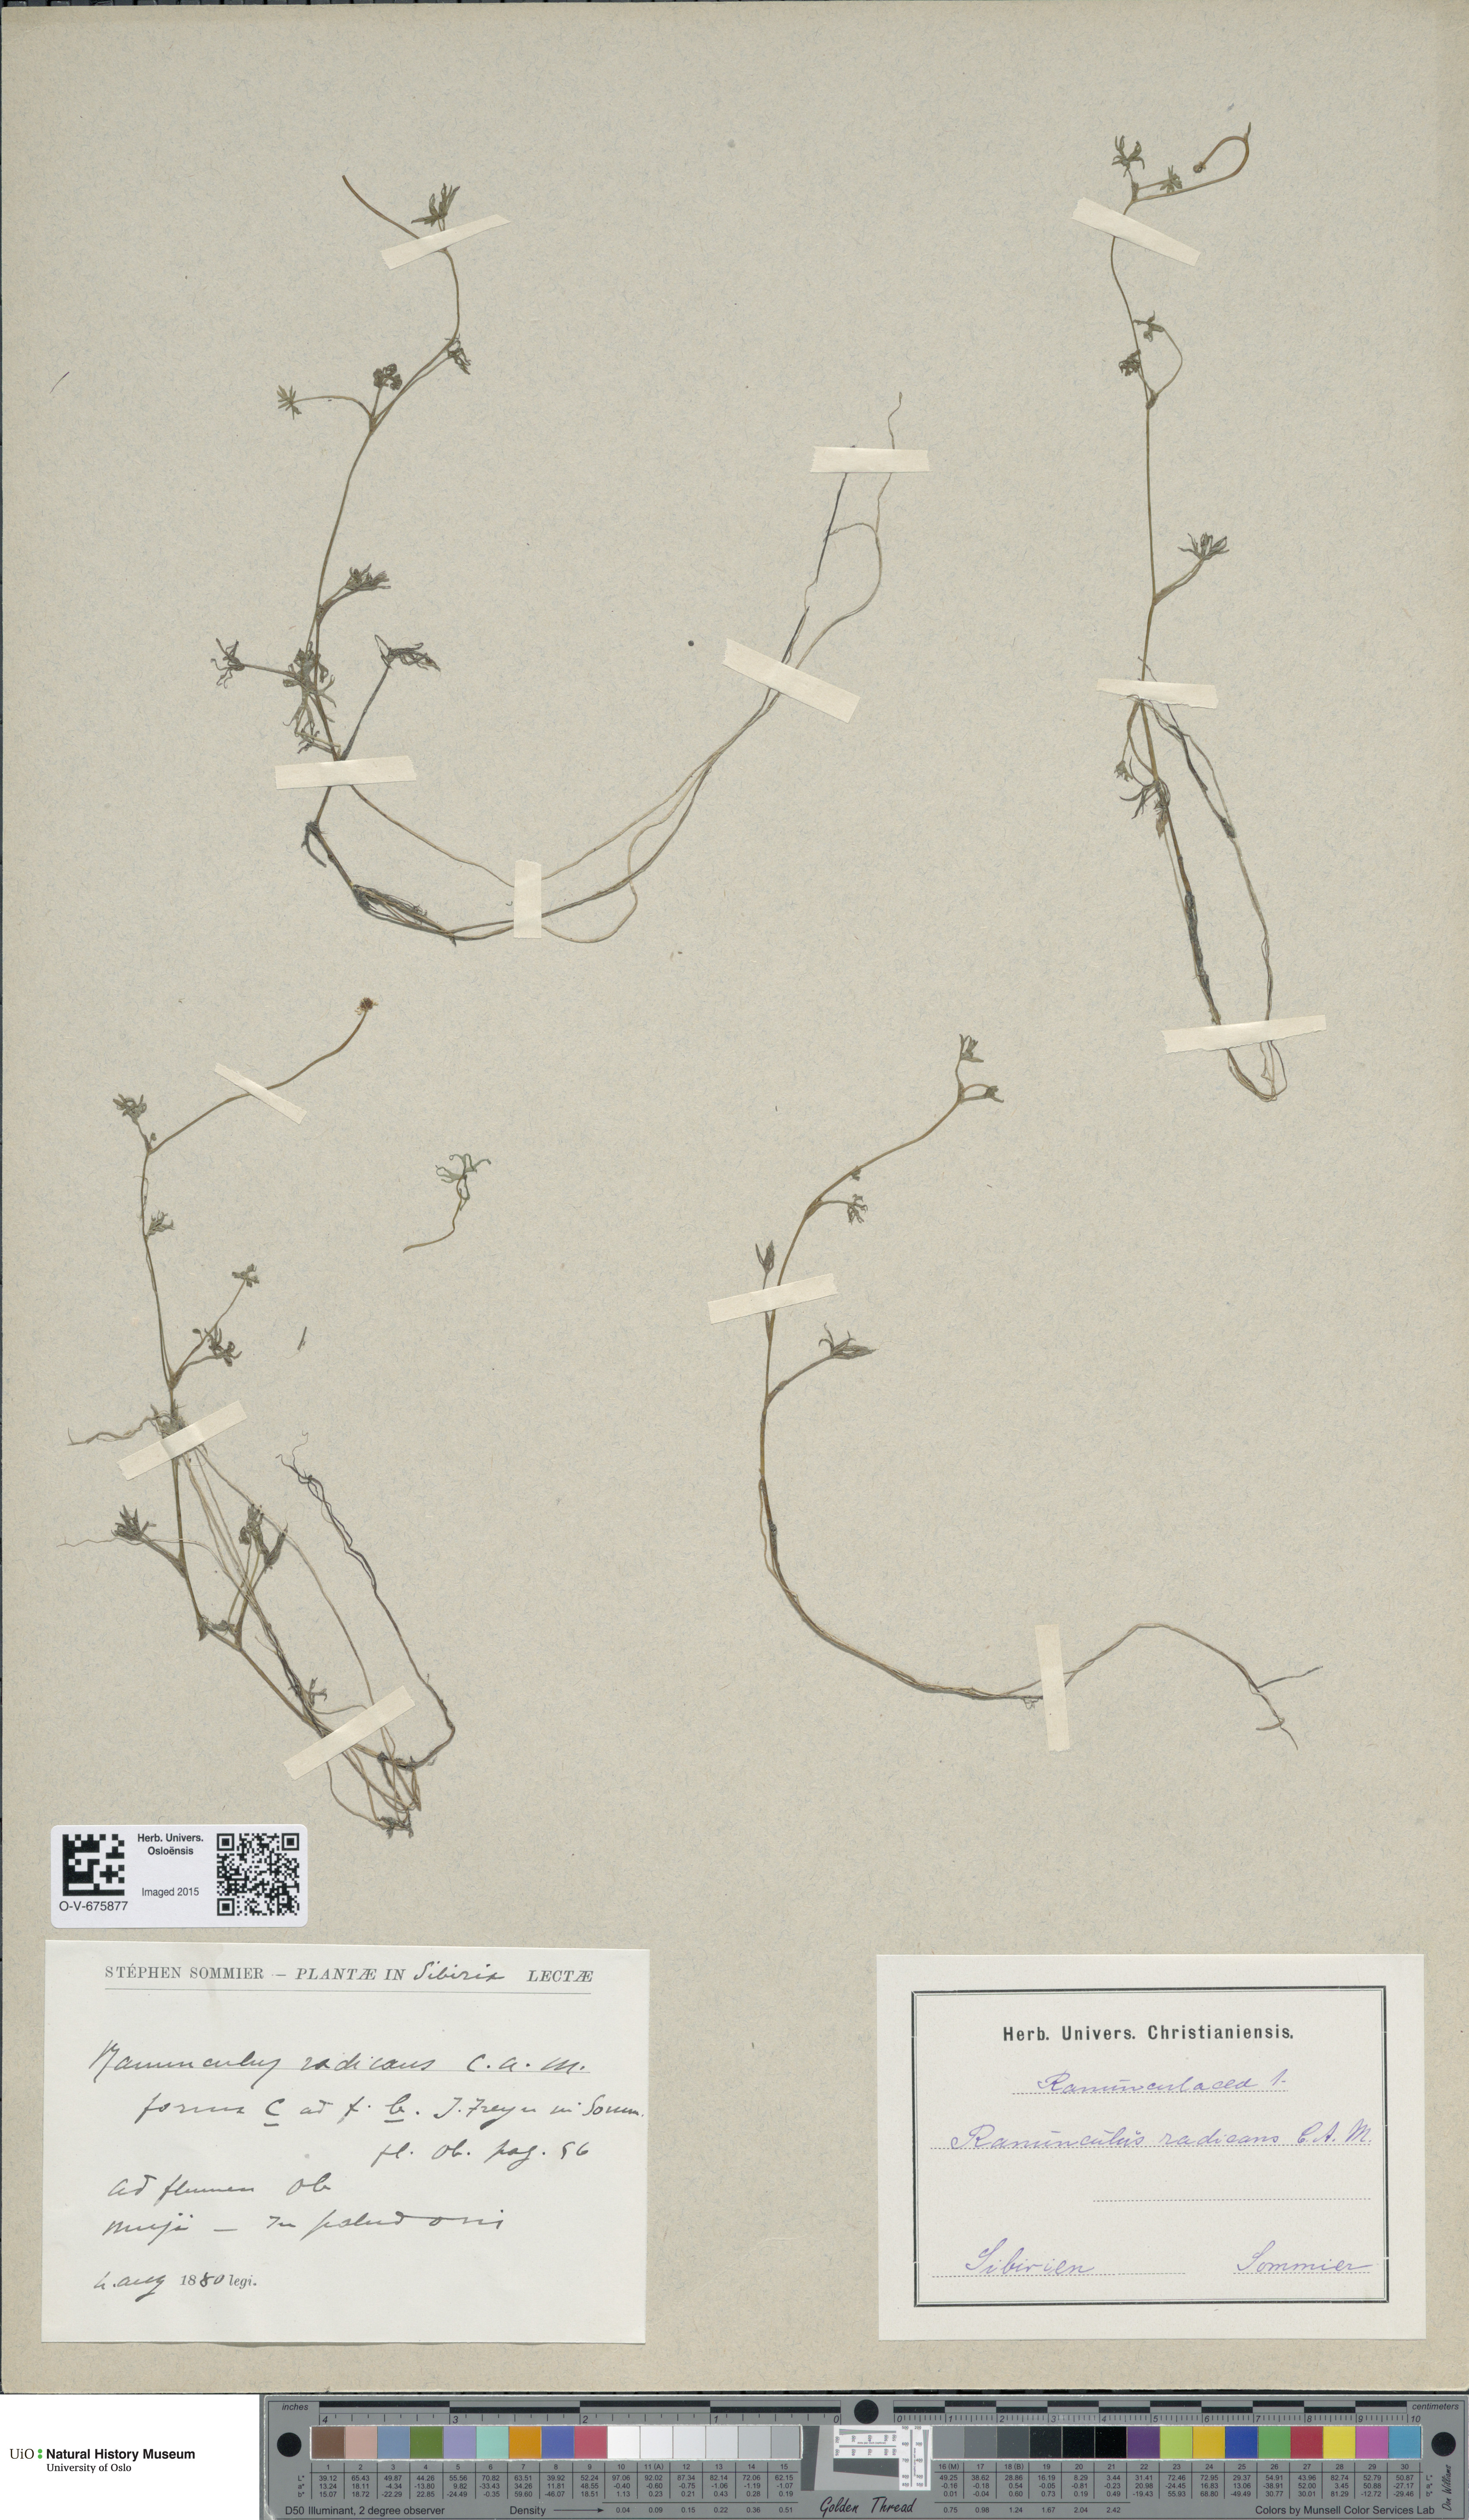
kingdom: Plantae
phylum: Tracheophyta
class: Magnoliopsida
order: Ranunculales
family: Ranunculaceae
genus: Ranunculus
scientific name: Ranunculus radicans
